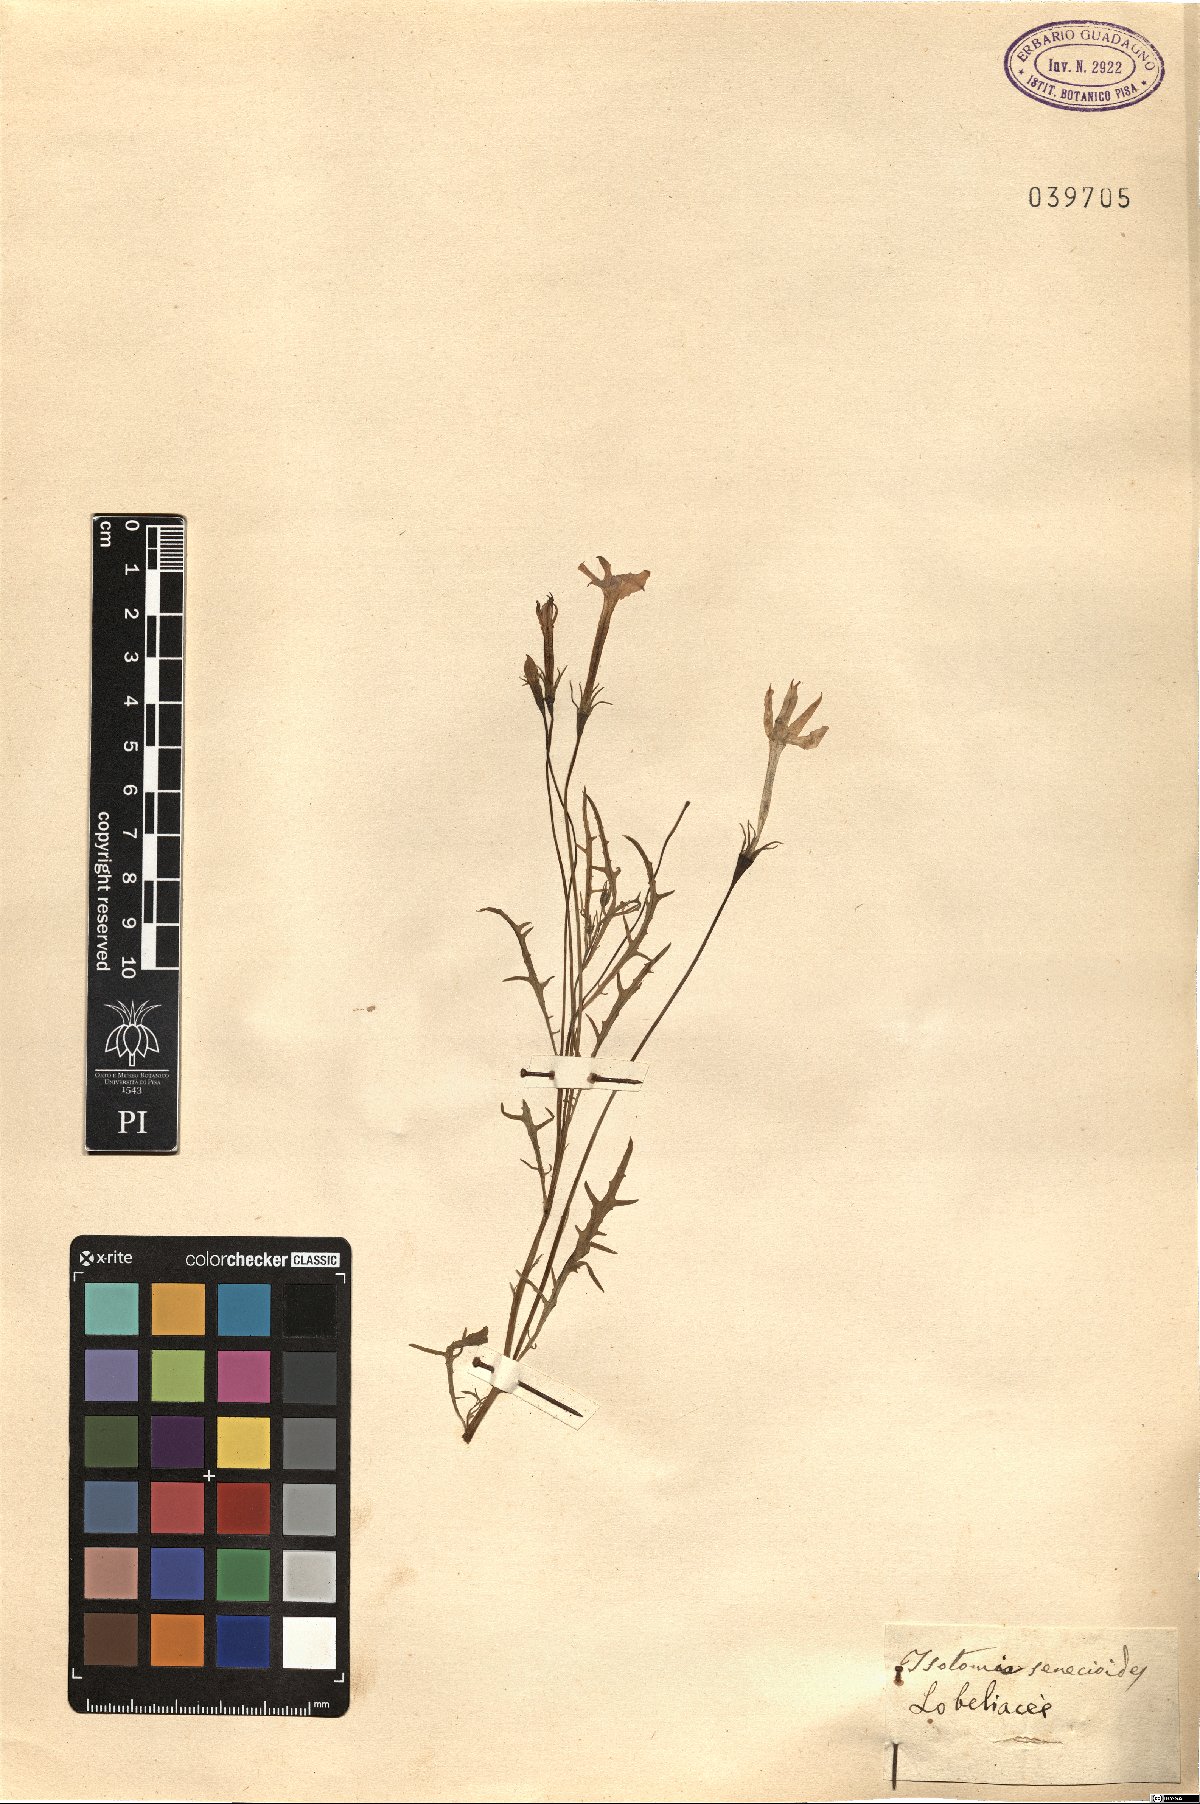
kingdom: Plantae
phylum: Tracheophyta
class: Magnoliopsida
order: Asterales
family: Campanulaceae
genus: Lithotoma
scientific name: Lithotoma axillaris
